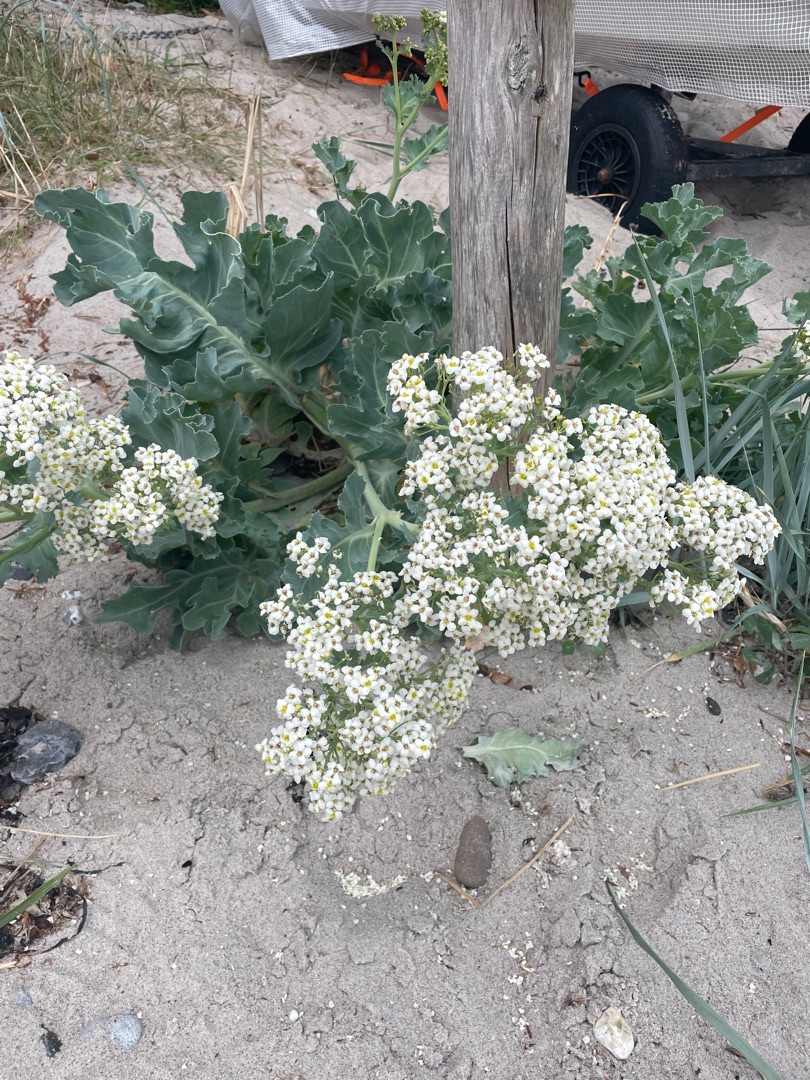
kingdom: Plantae
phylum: Tracheophyta
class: Magnoliopsida
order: Brassicales
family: Brassicaceae
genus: Crambe
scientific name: Crambe maritima
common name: Strandkål
